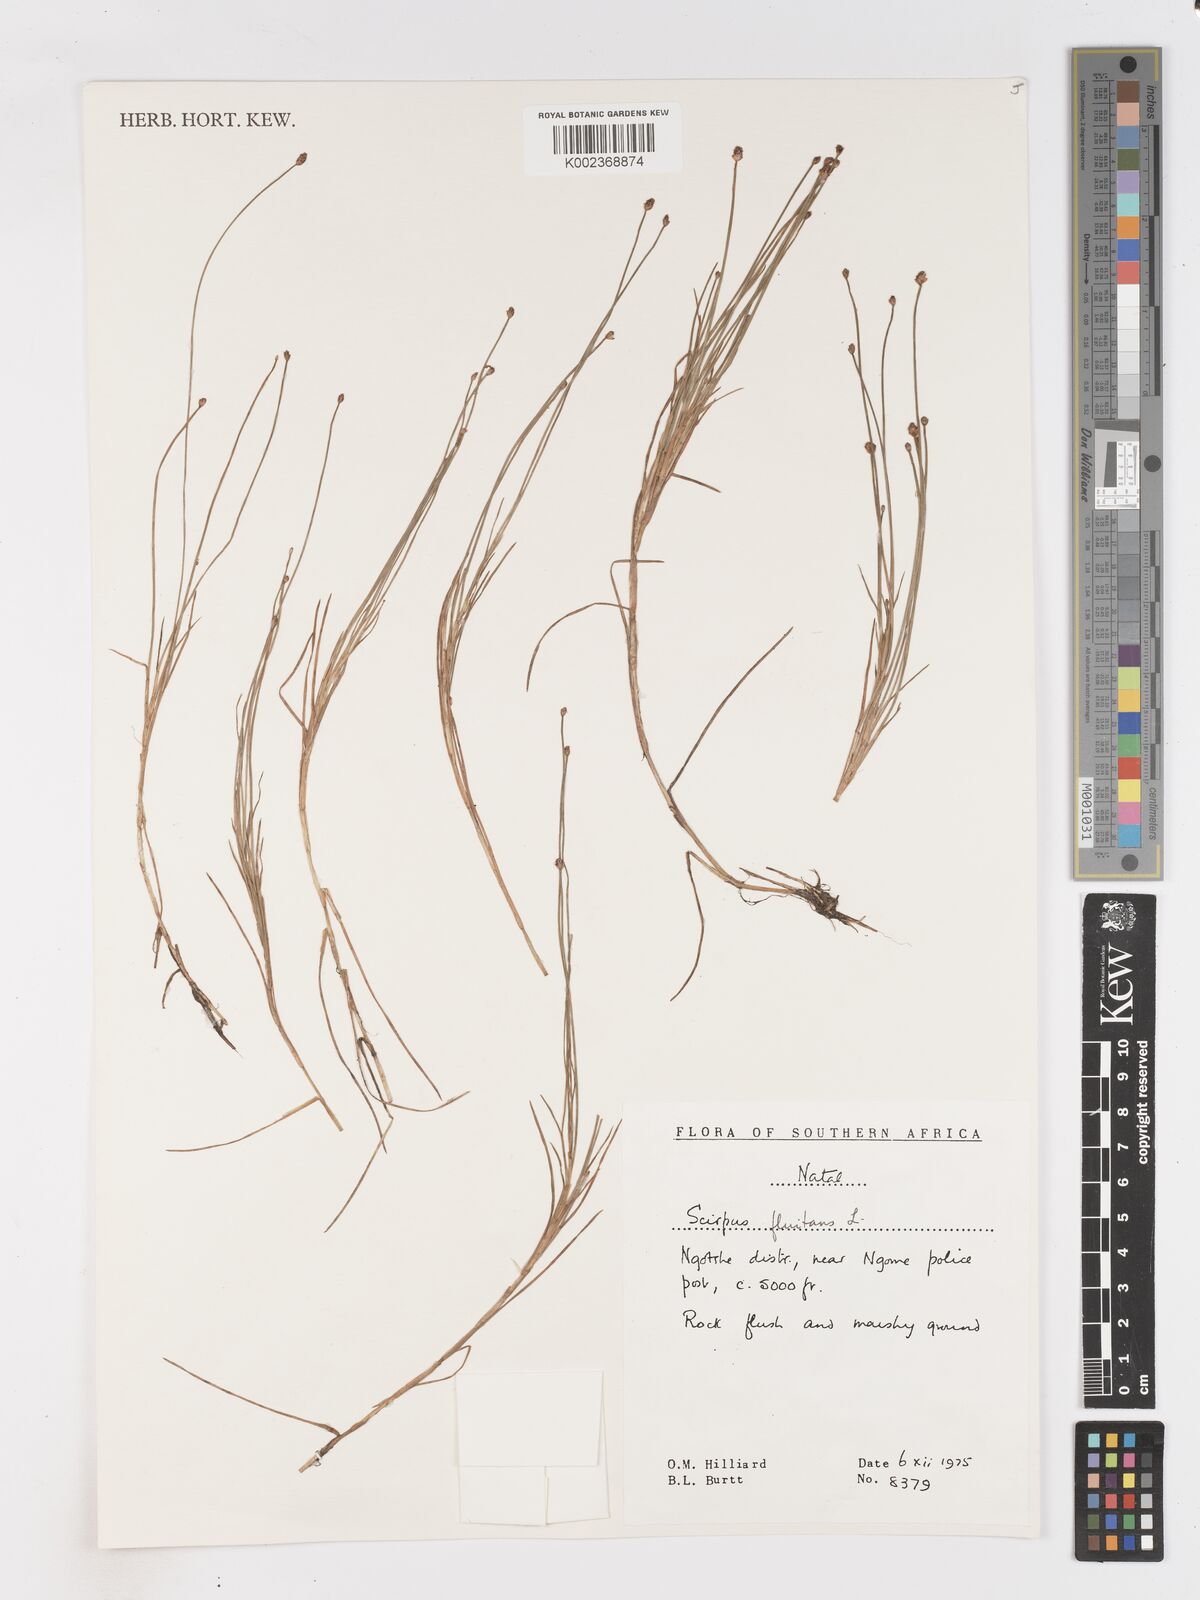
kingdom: Plantae
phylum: Tracheophyta
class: Liliopsida
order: Poales
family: Cyperaceae
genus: Isolepis
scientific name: Isolepis fluitans
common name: Floating club-rush
